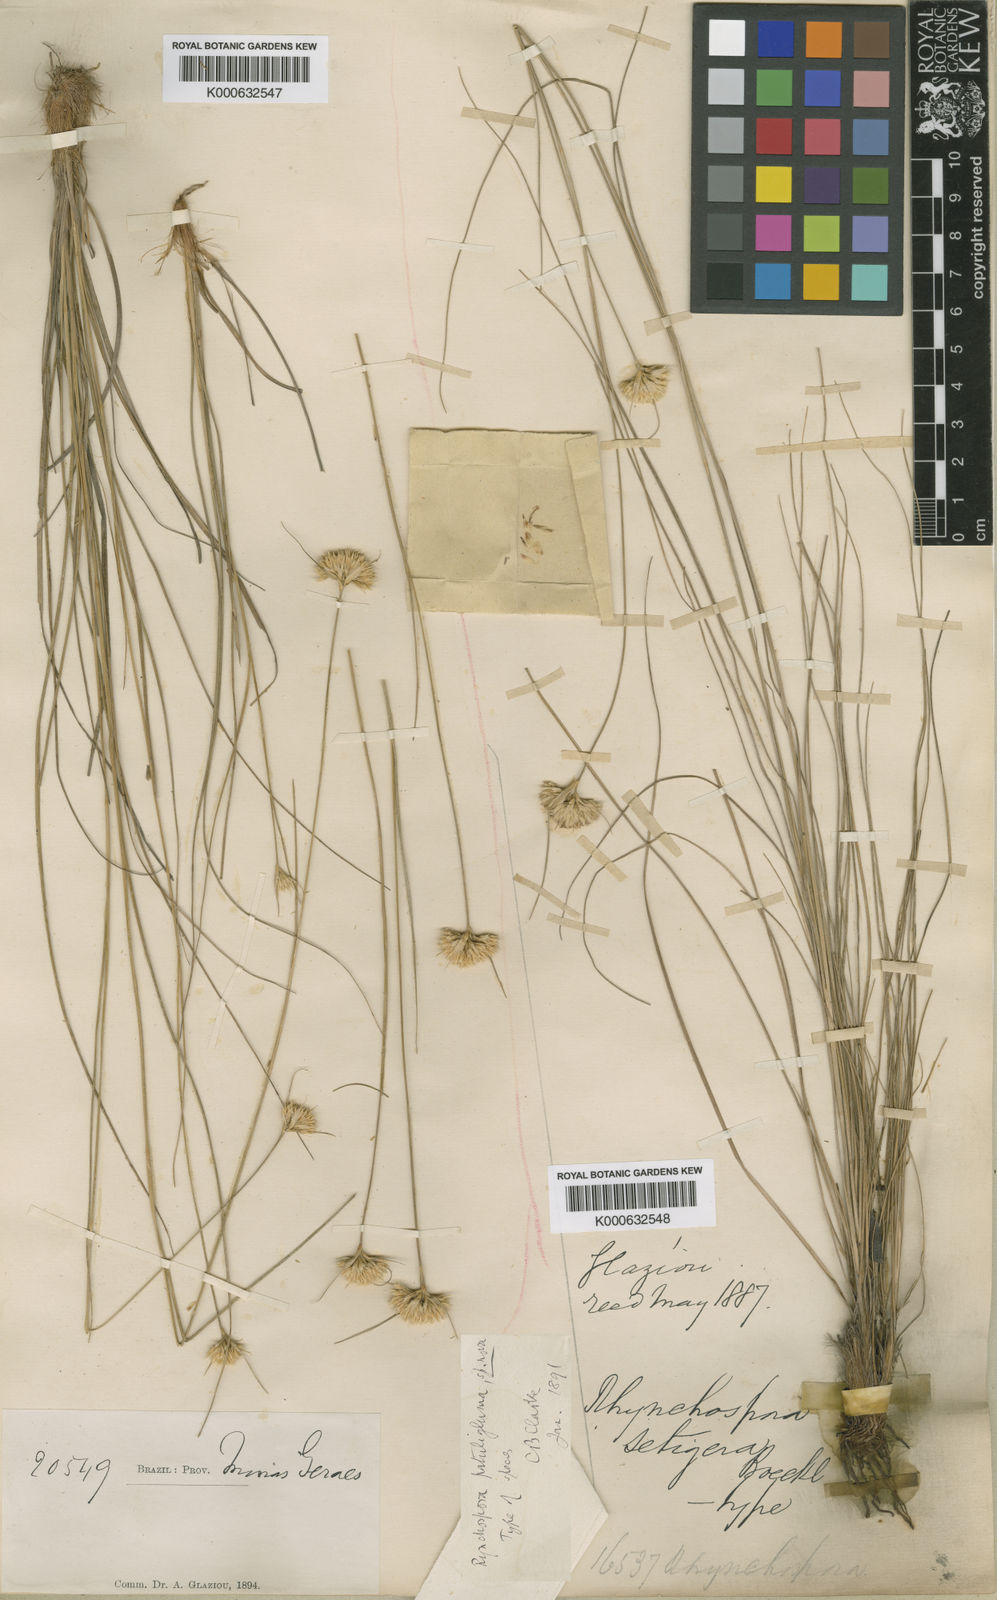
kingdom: Plantae
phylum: Tracheophyta
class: Liliopsida
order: Poales
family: Cyperaceae
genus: Rhynchospora
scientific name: Rhynchospora
